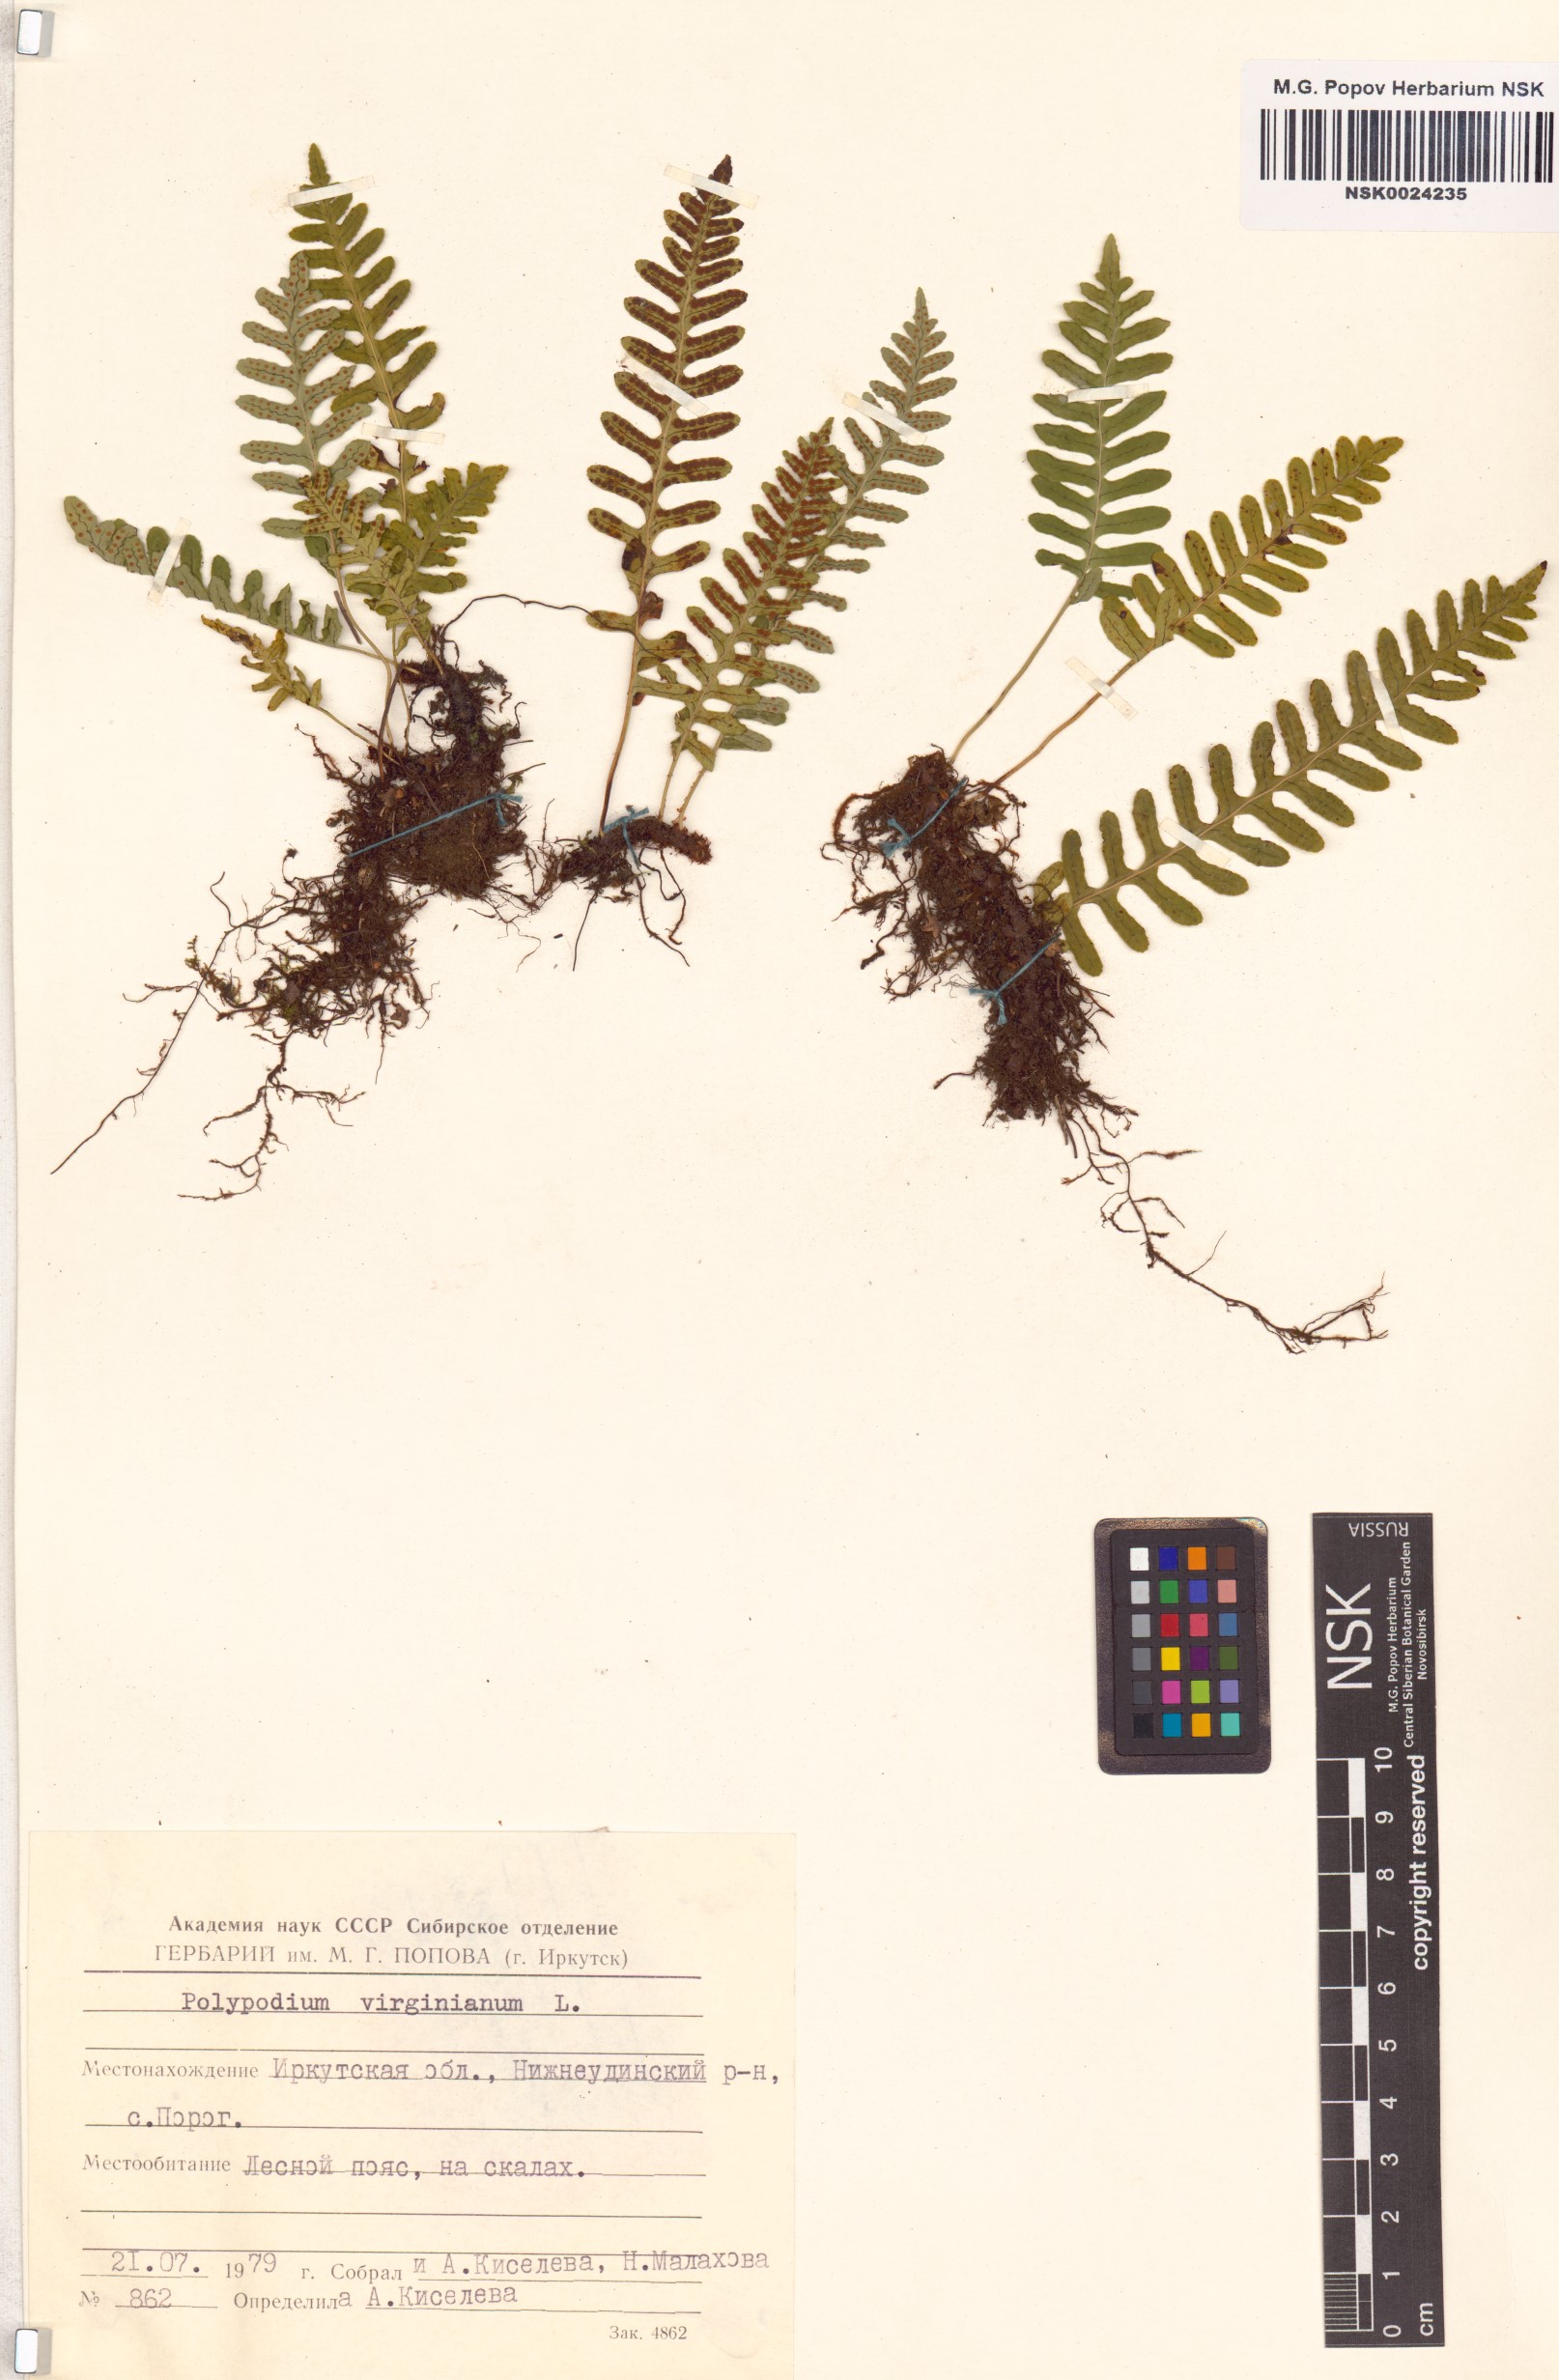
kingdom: Plantae
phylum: Tracheophyta
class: Polypodiopsida
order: Polypodiales
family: Polypodiaceae
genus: Polypodium
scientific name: Polypodium virginianum
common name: American wall fern
